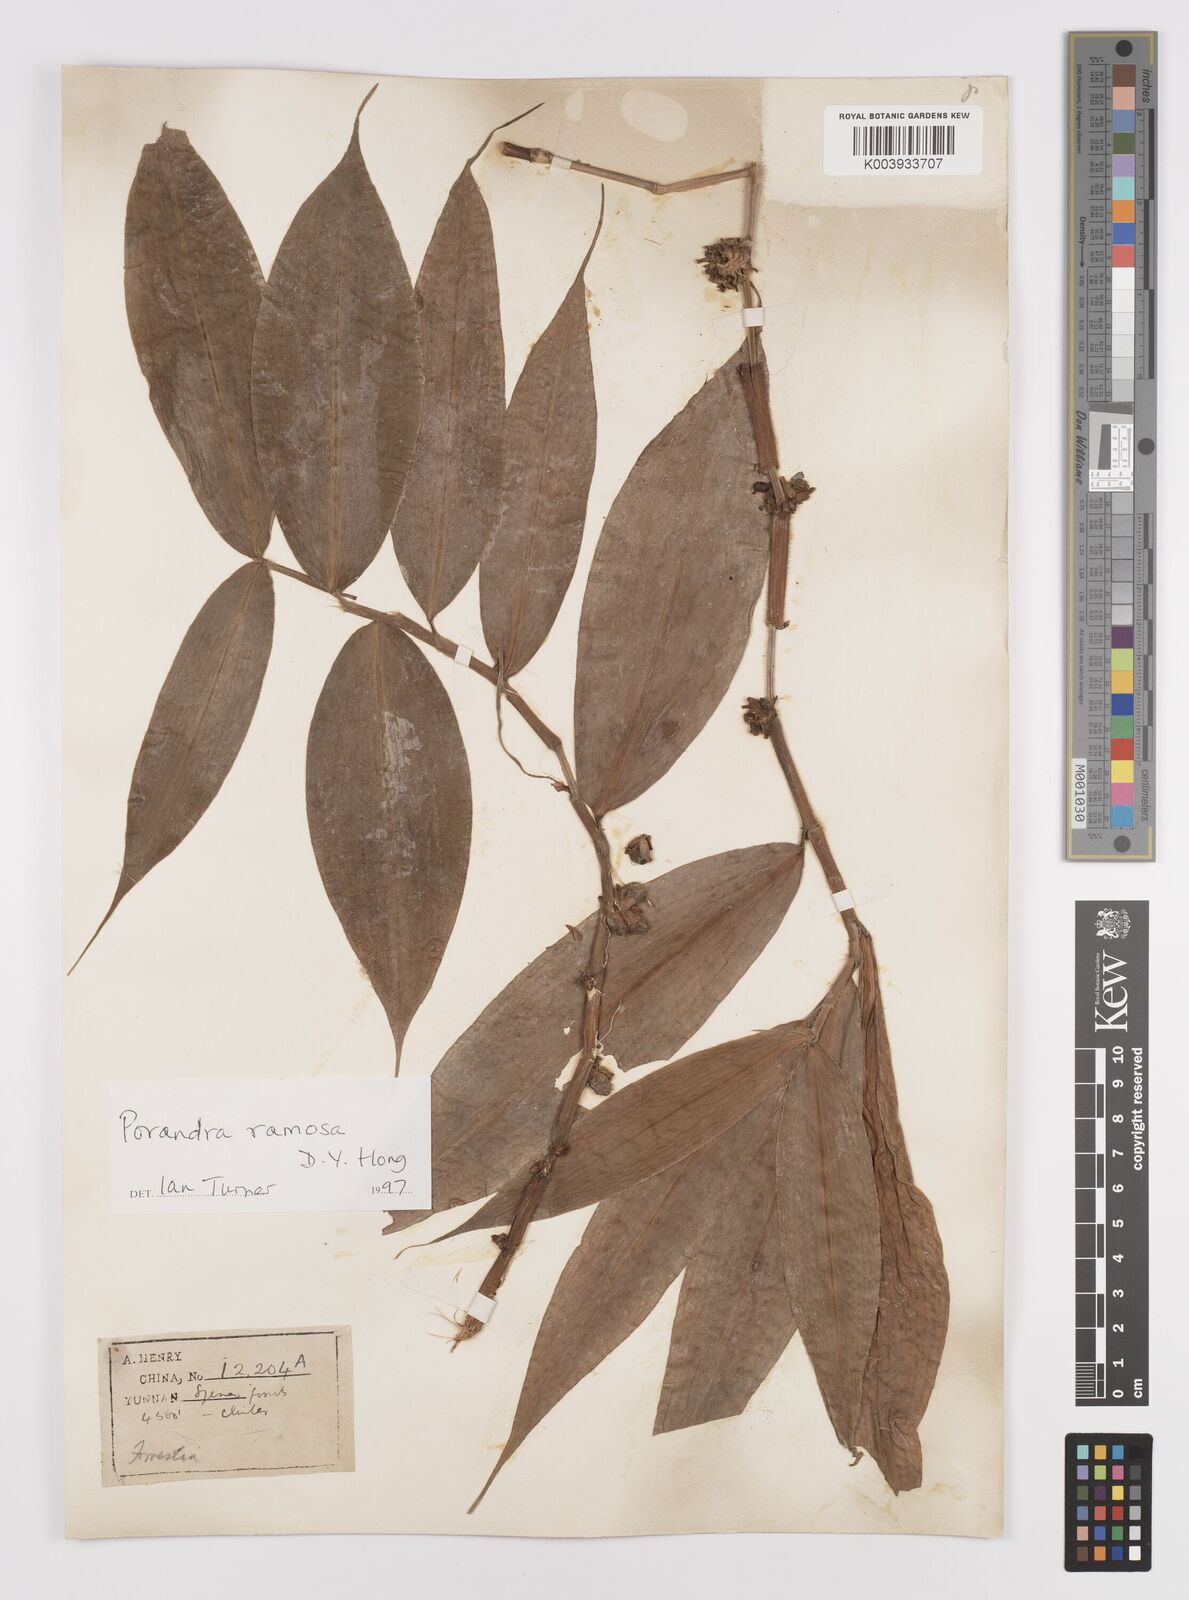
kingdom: Plantae
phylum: Tracheophyta
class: Liliopsida
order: Commelinales
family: Commelinaceae
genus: Porandra
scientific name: Porandra ramosa
